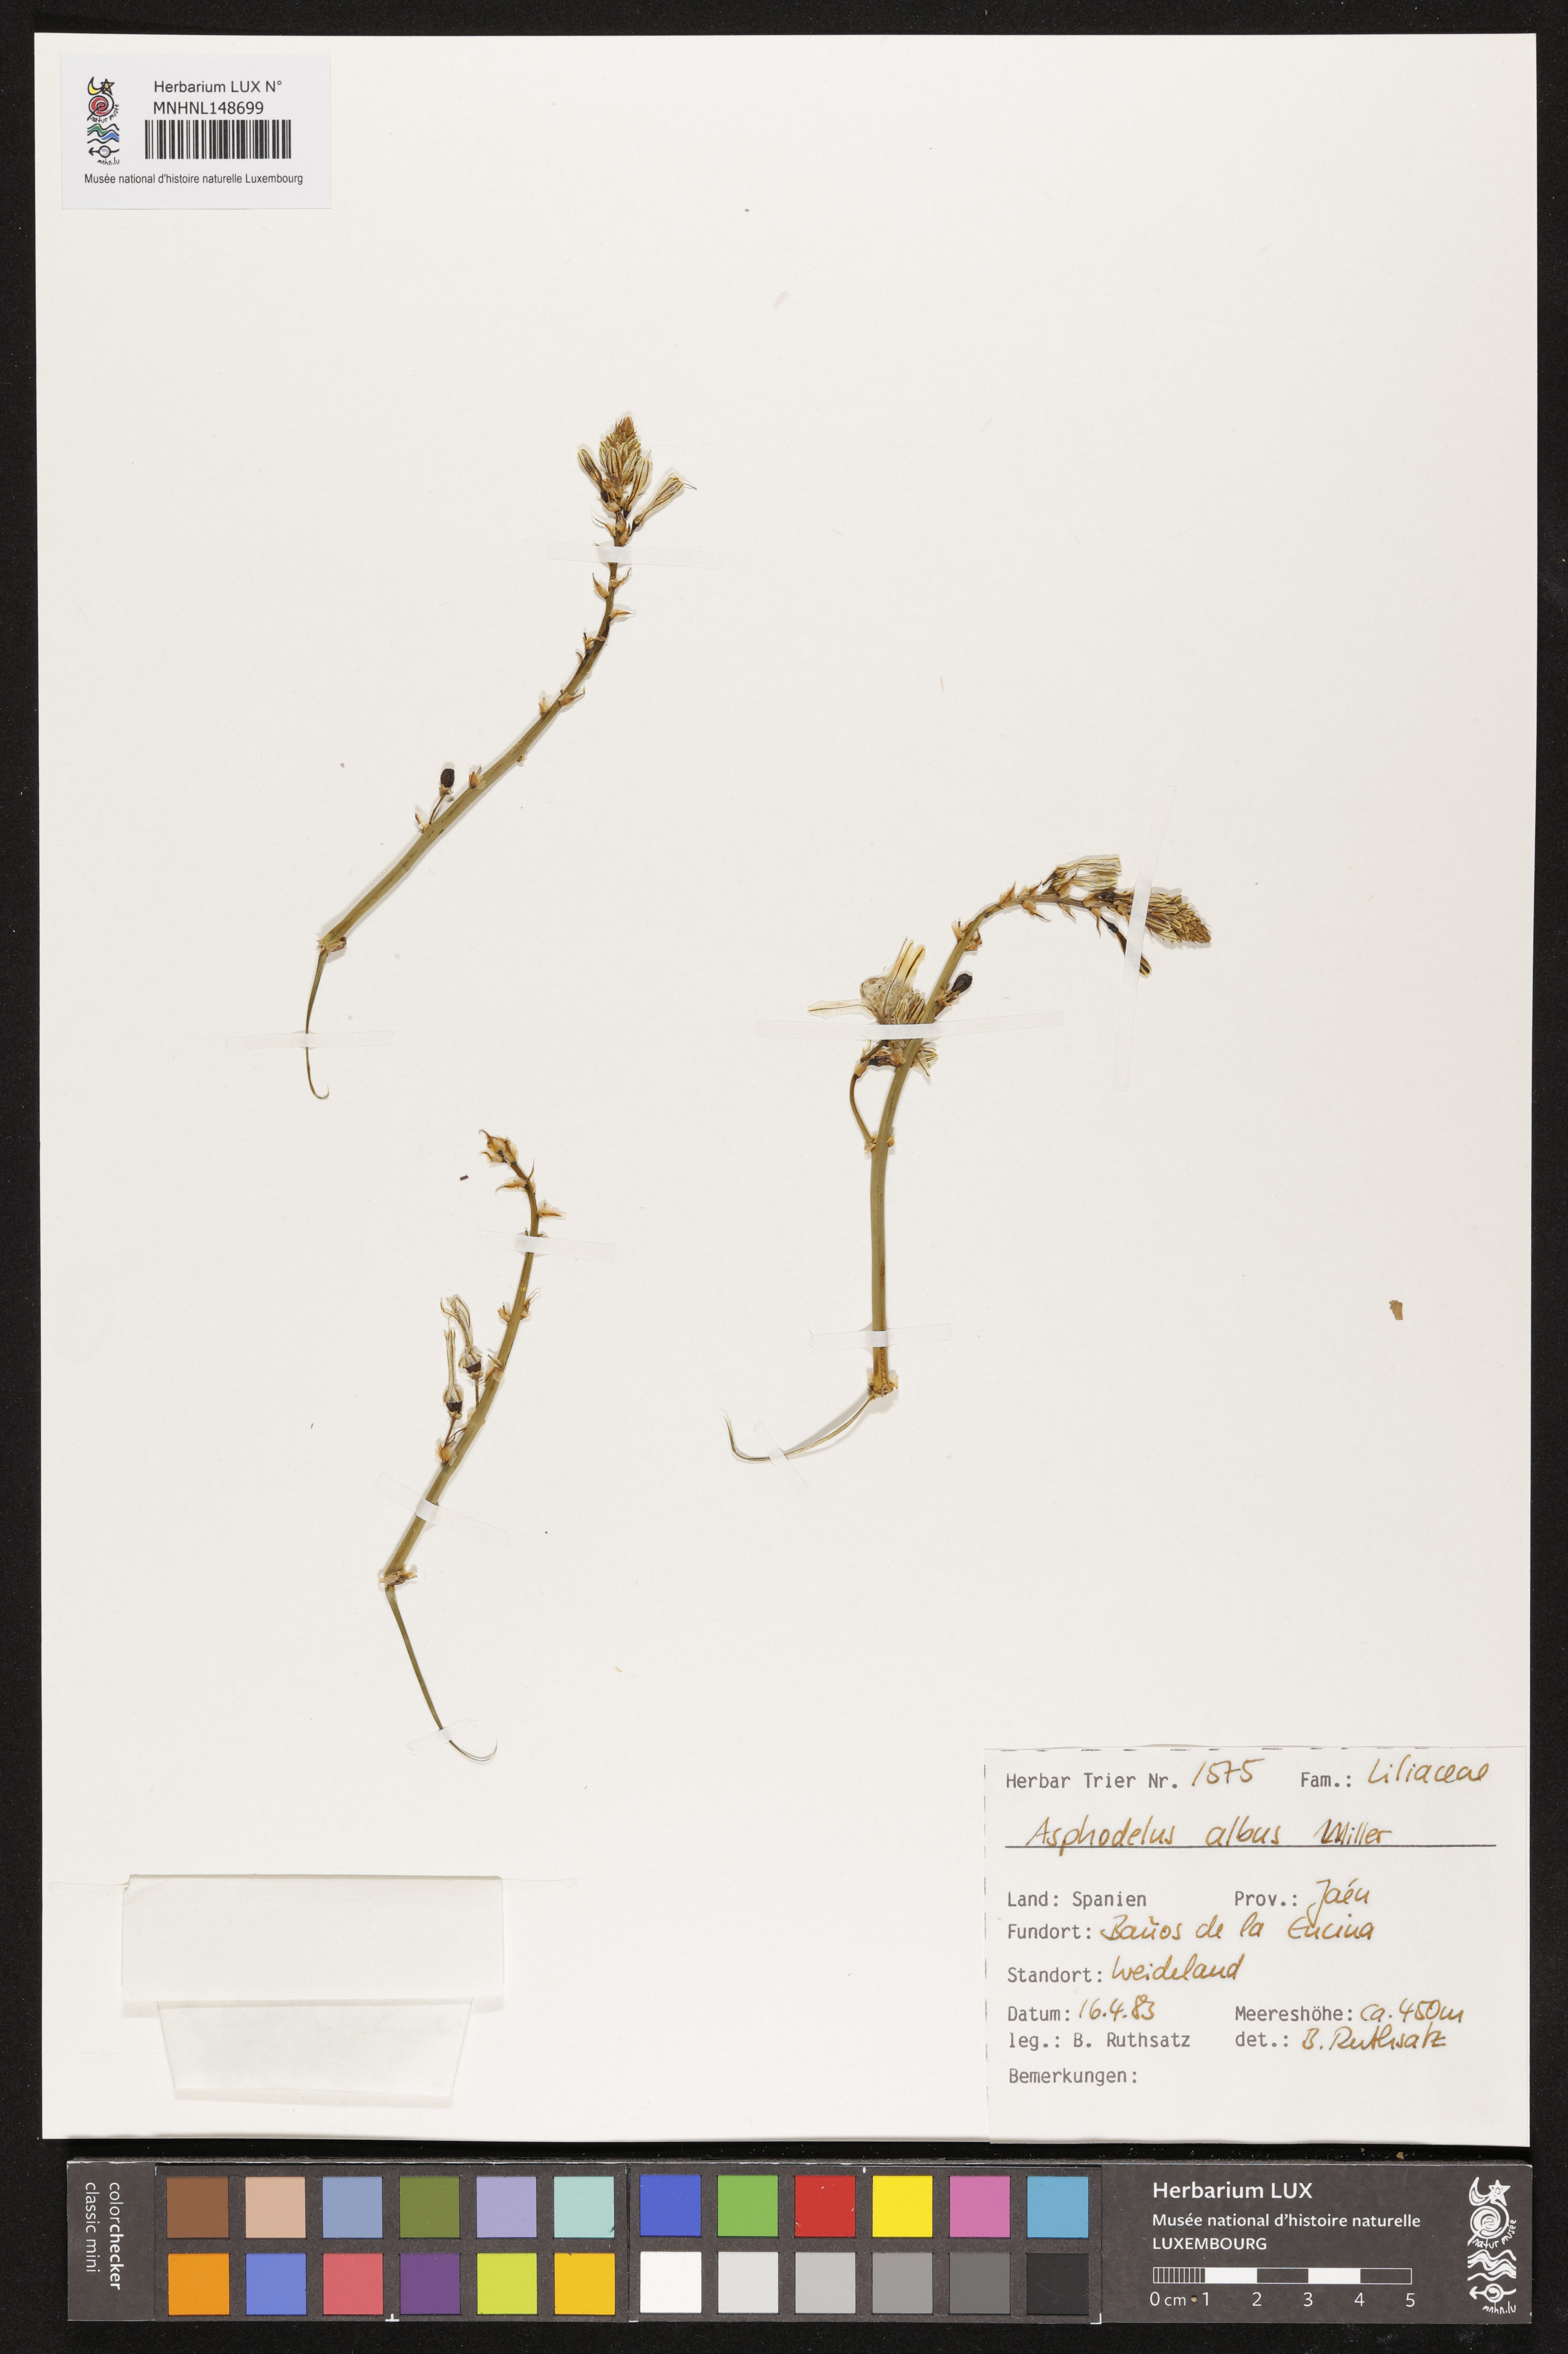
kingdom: Plantae
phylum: Tracheophyta
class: Liliopsida
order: Asparagales
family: Asphodelaceae
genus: Asphodelus
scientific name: Asphodelus albus
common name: White asphodel
